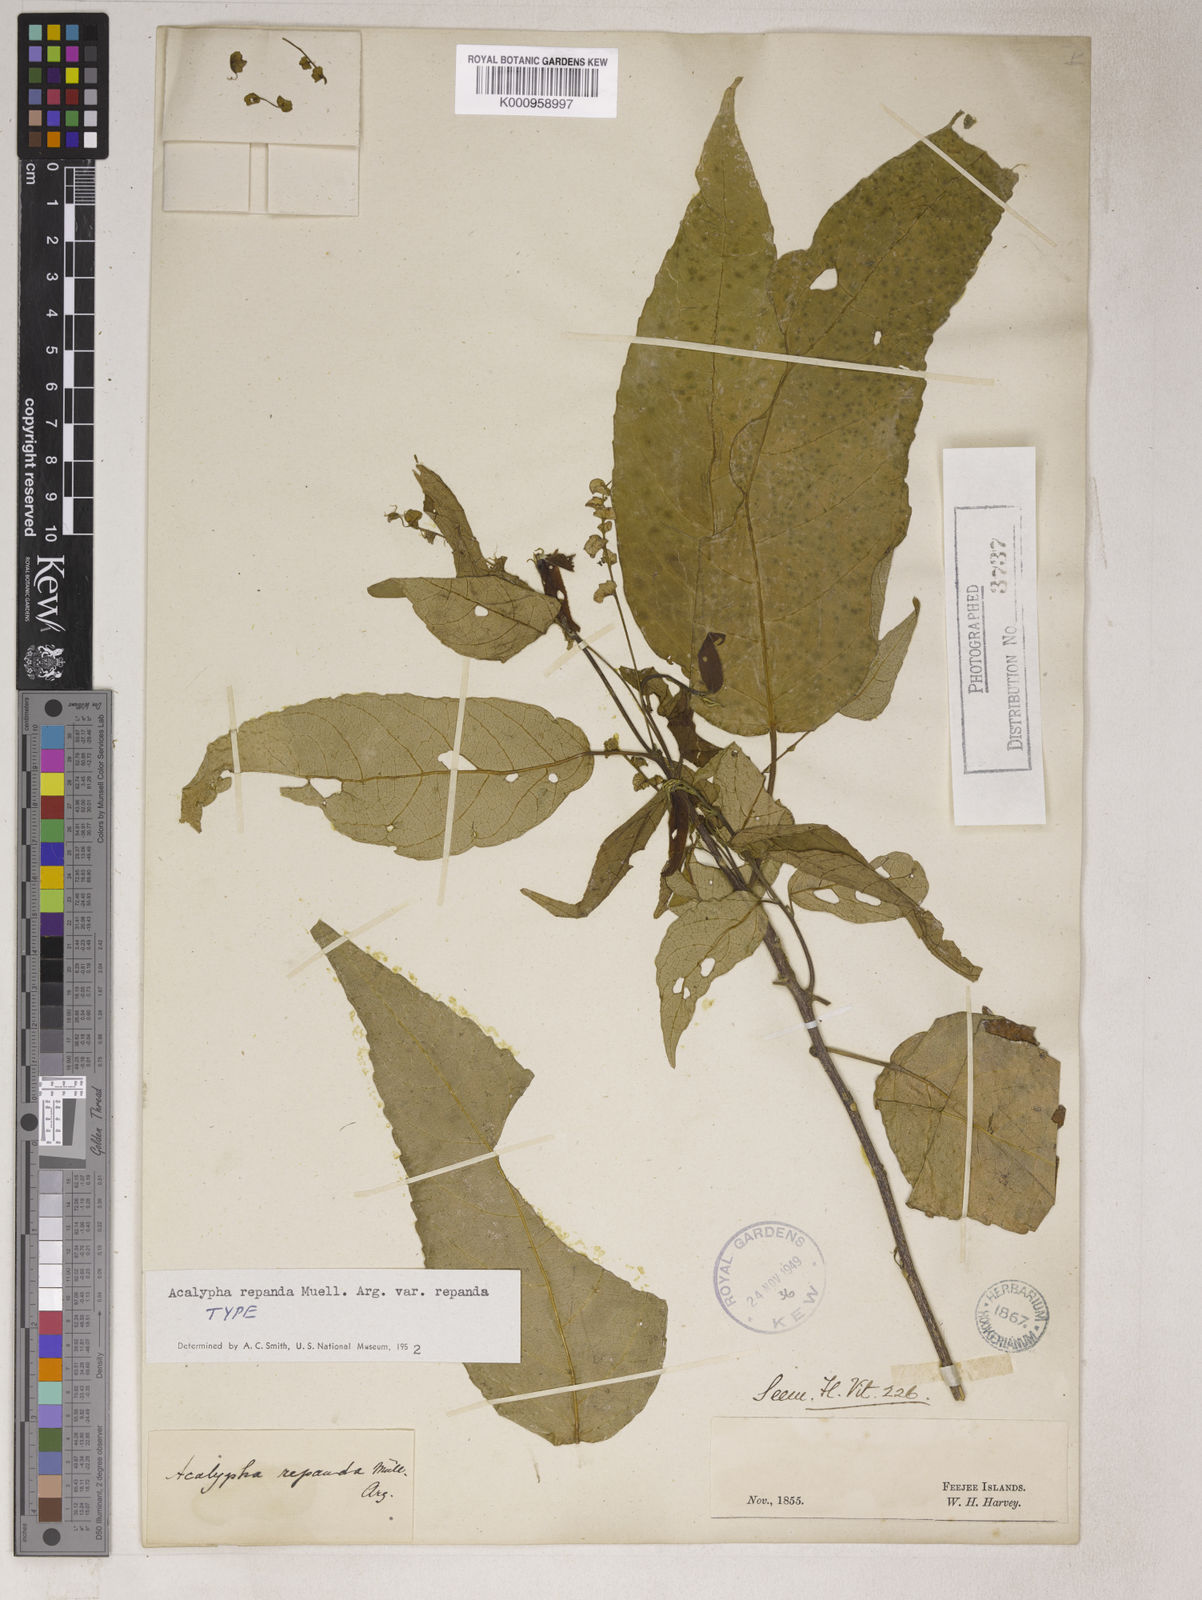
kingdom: Plantae
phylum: Tracheophyta
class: Magnoliopsida
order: Malpighiales
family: Euphorbiaceae
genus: Acalypha
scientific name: Acalypha
